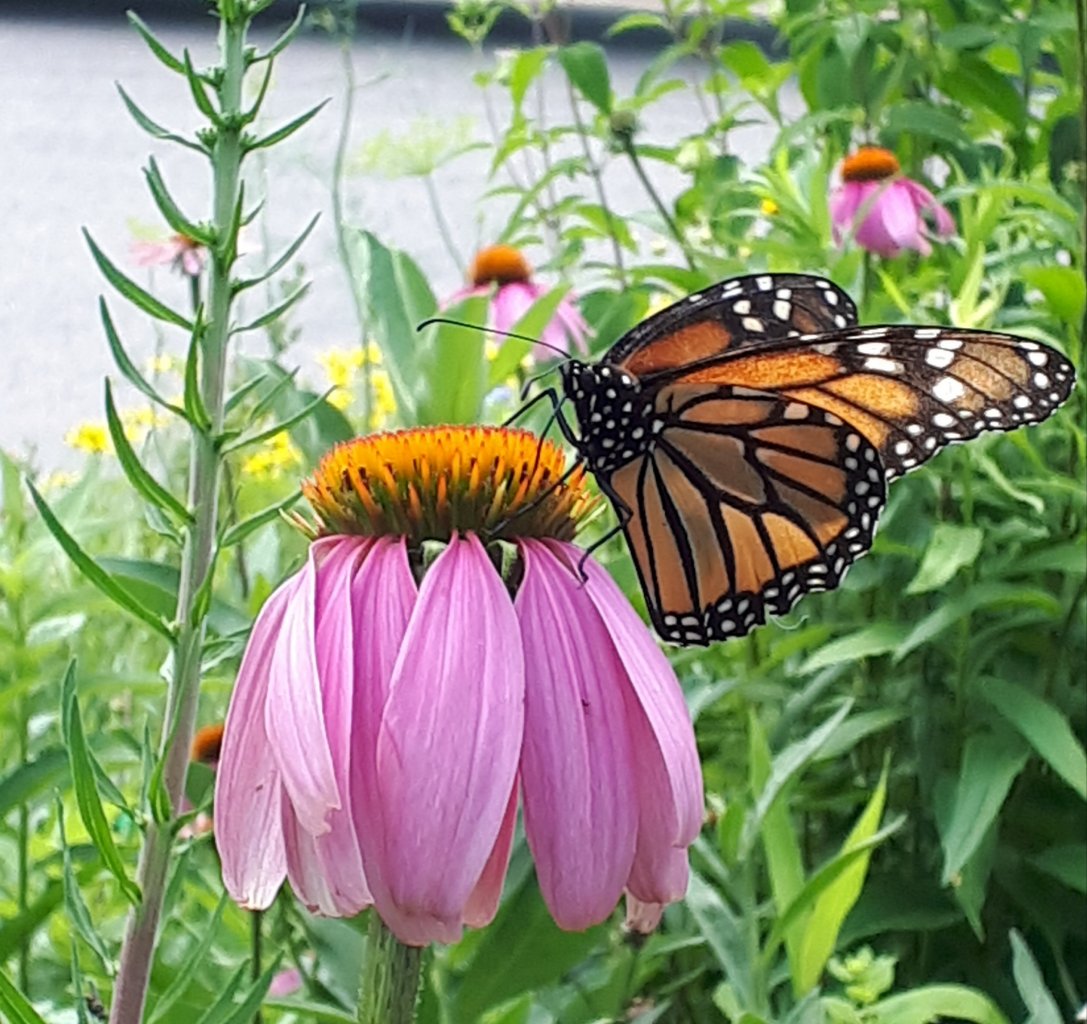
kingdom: Animalia
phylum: Arthropoda
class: Insecta
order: Lepidoptera
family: Nymphalidae
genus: Danaus
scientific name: Danaus plexippus
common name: Monarch
